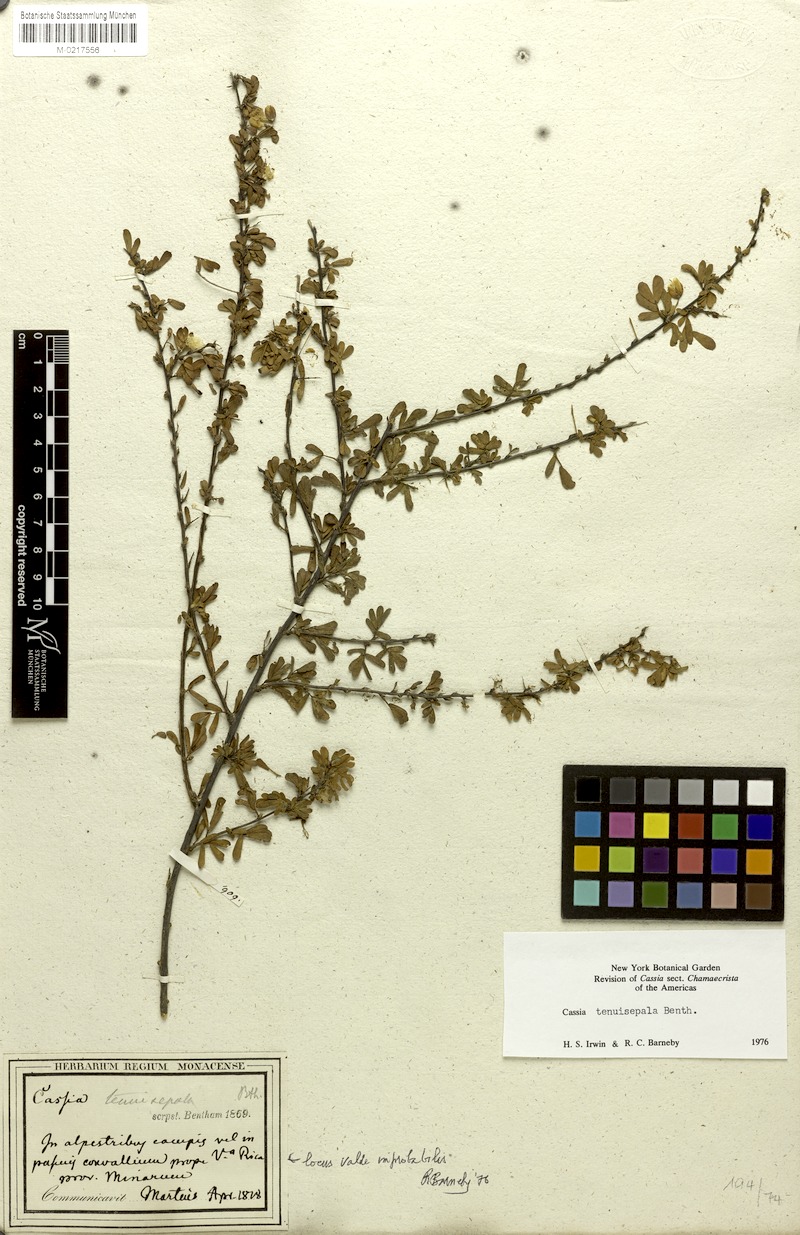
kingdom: Plantae
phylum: Tracheophyta
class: Magnoliopsida
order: Fabales
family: Fabaceae
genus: Chamaecrista
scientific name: Chamaecrista tenuisepala
